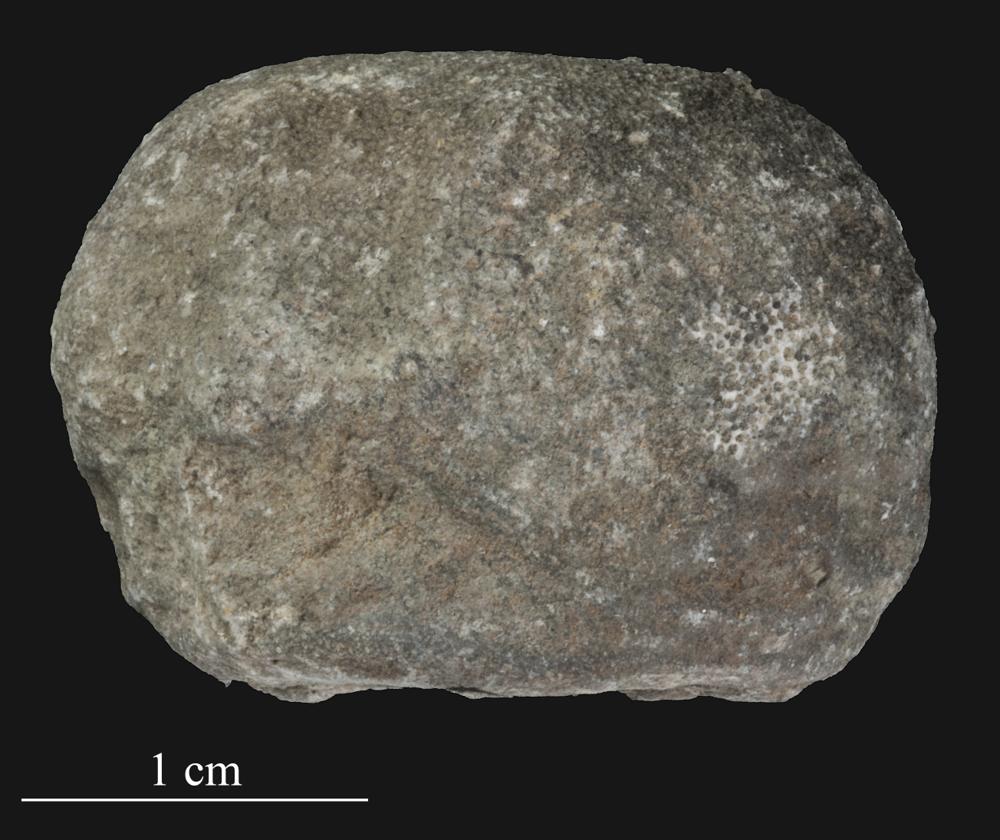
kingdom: Animalia
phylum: Bryozoa
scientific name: Bryozoa
